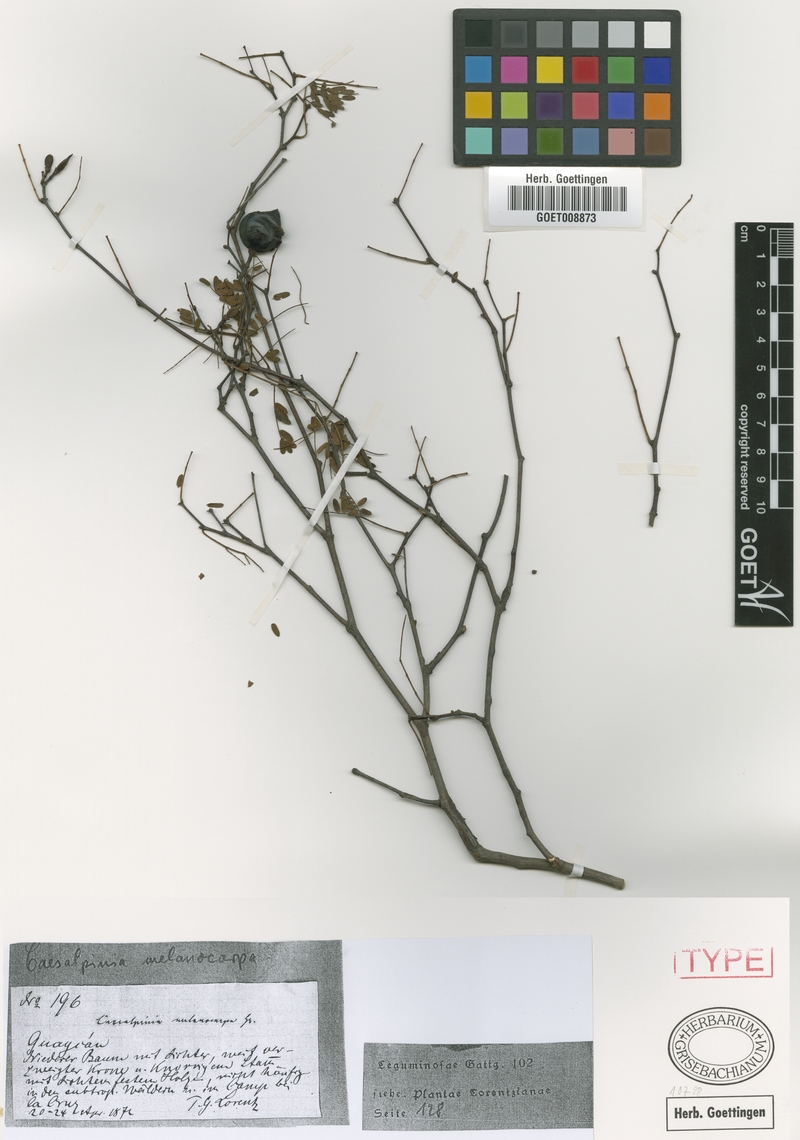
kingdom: Plantae
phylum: Tracheophyta
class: Magnoliopsida
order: Fabales
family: Fabaceae
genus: Libidibia
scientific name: Libidibia paraguariensis
